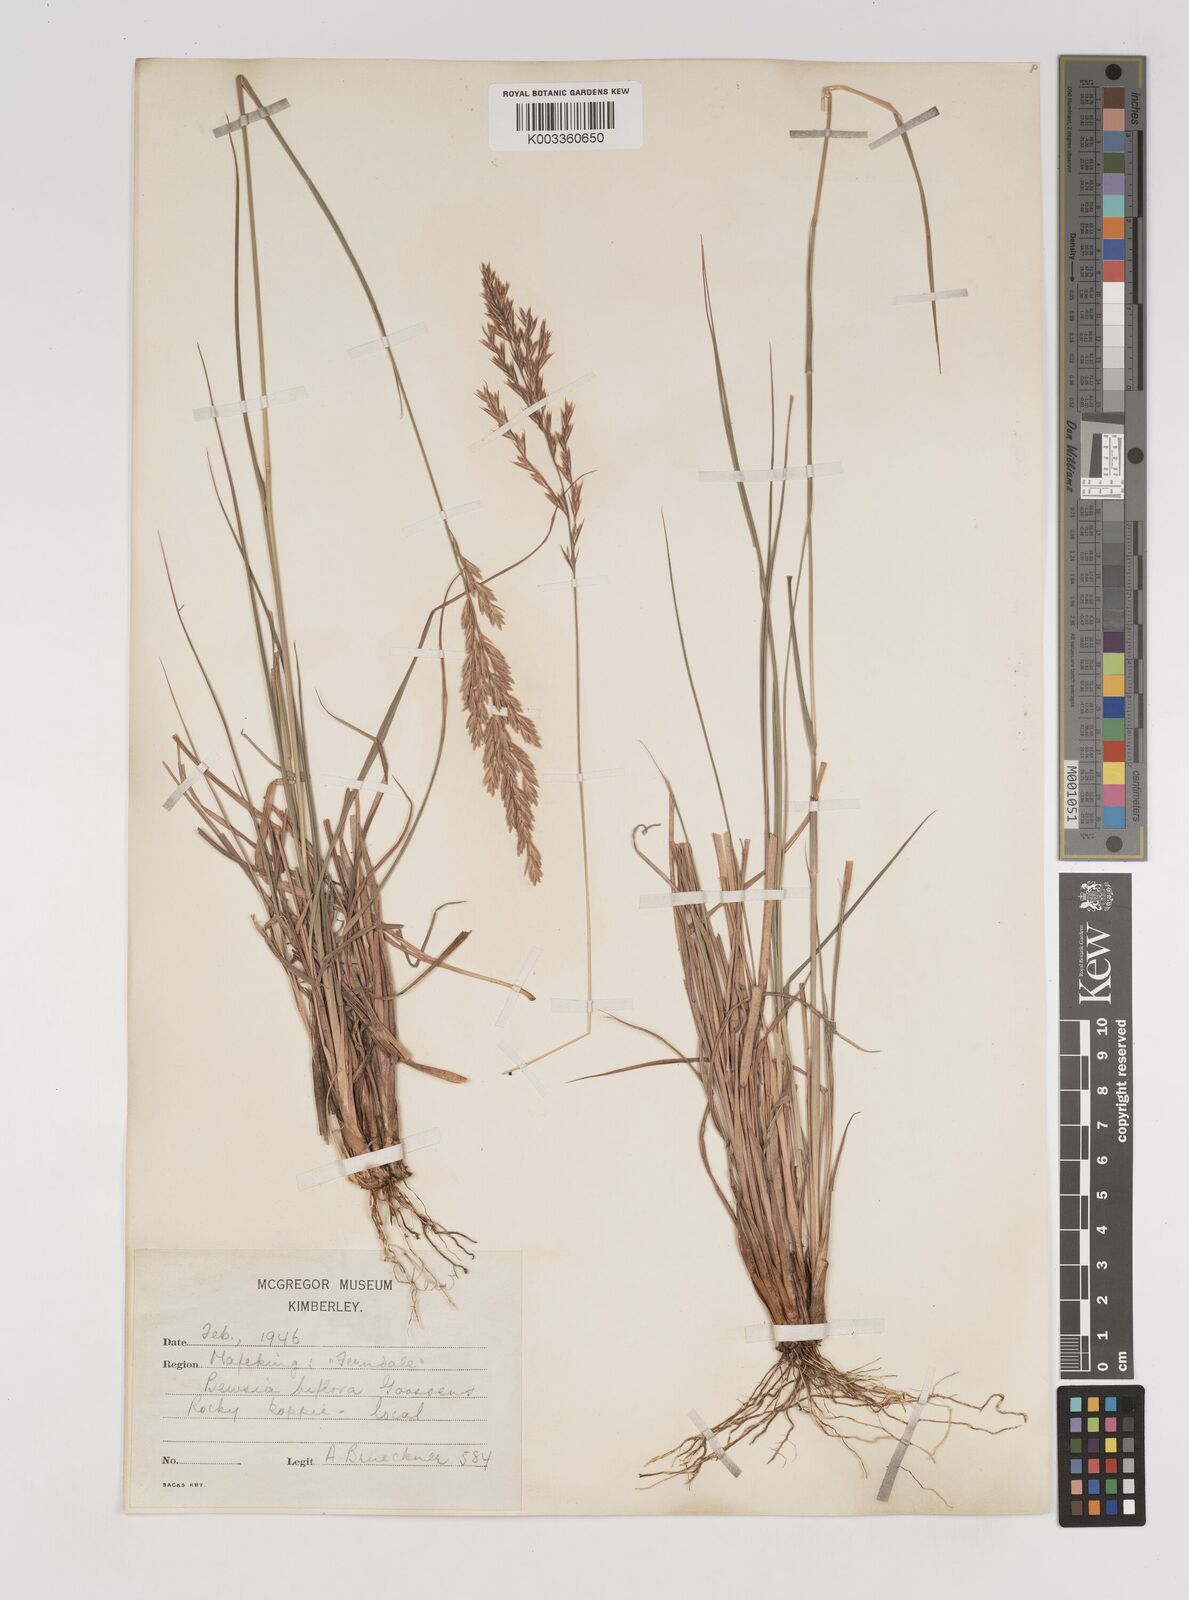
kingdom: Plantae
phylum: Tracheophyta
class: Liliopsida
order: Poales
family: Poaceae
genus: Bewsia
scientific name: Bewsia biflora
